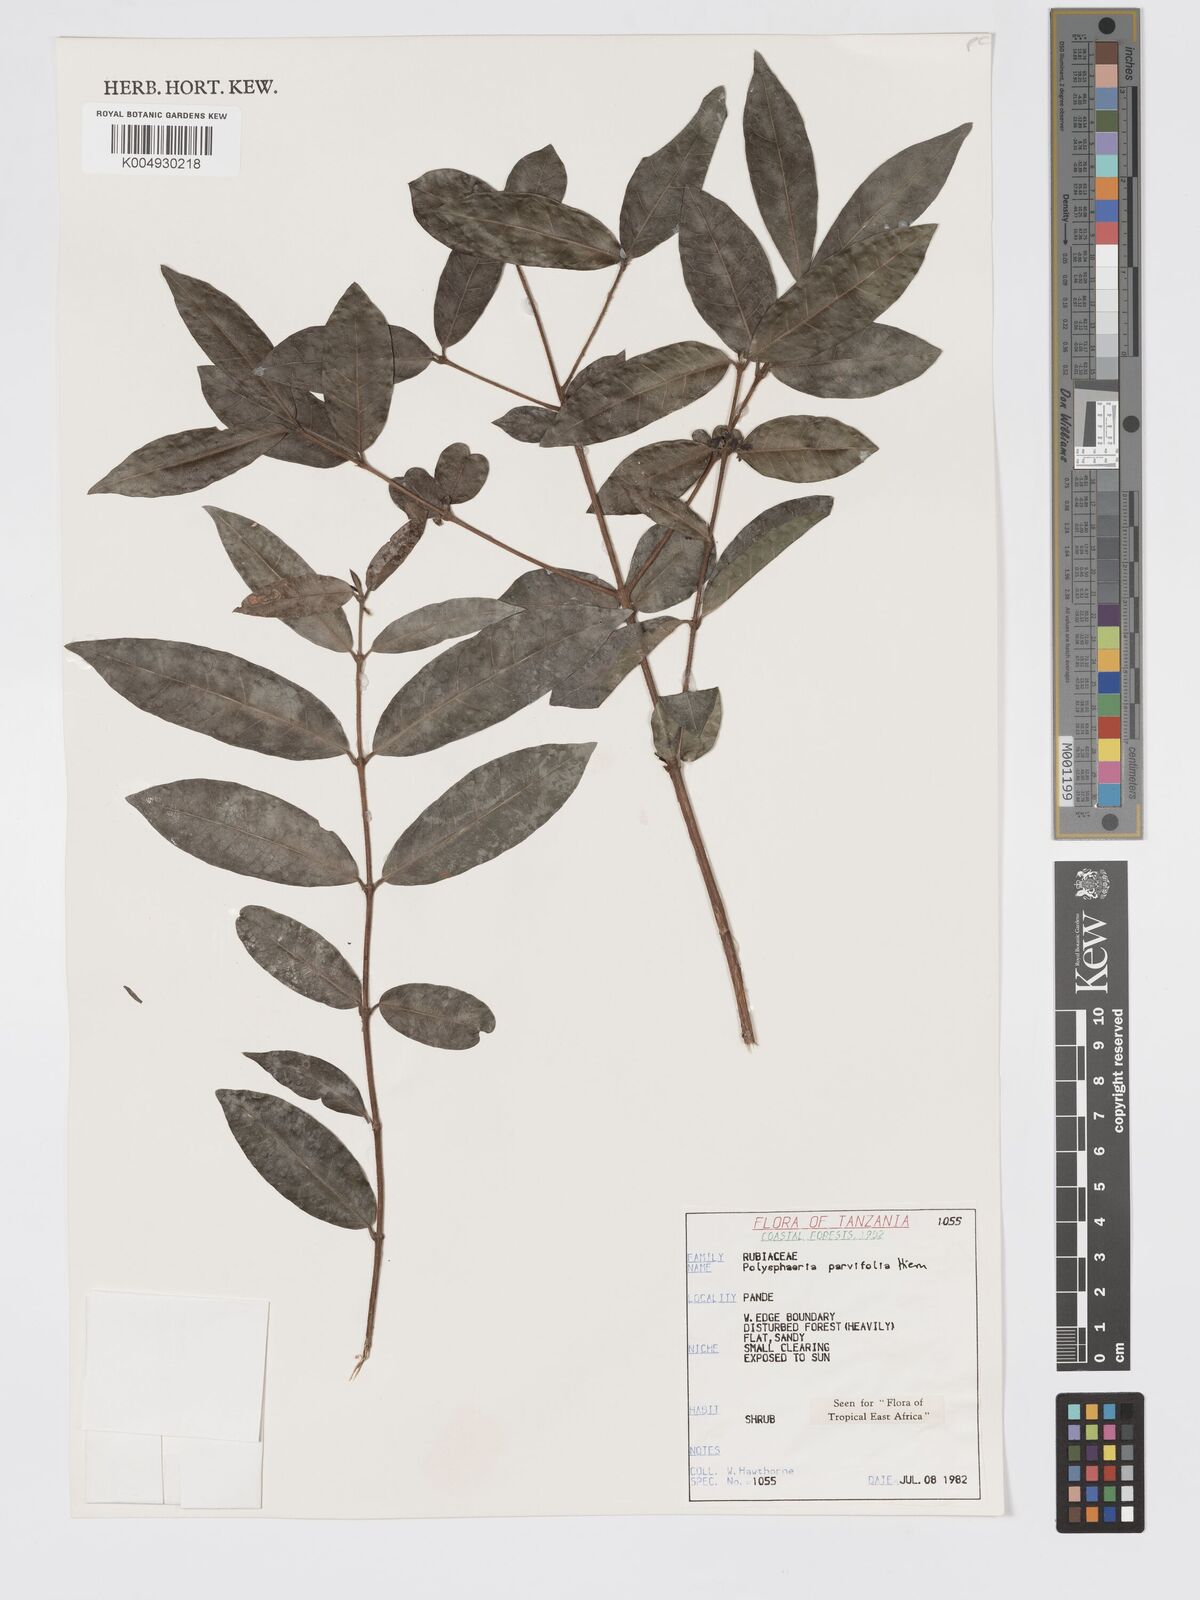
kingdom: Plantae
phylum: Tracheophyta
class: Magnoliopsida
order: Gentianales
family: Rubiaceae
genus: Polysphaeria
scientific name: Polysphaeria parvifolia
